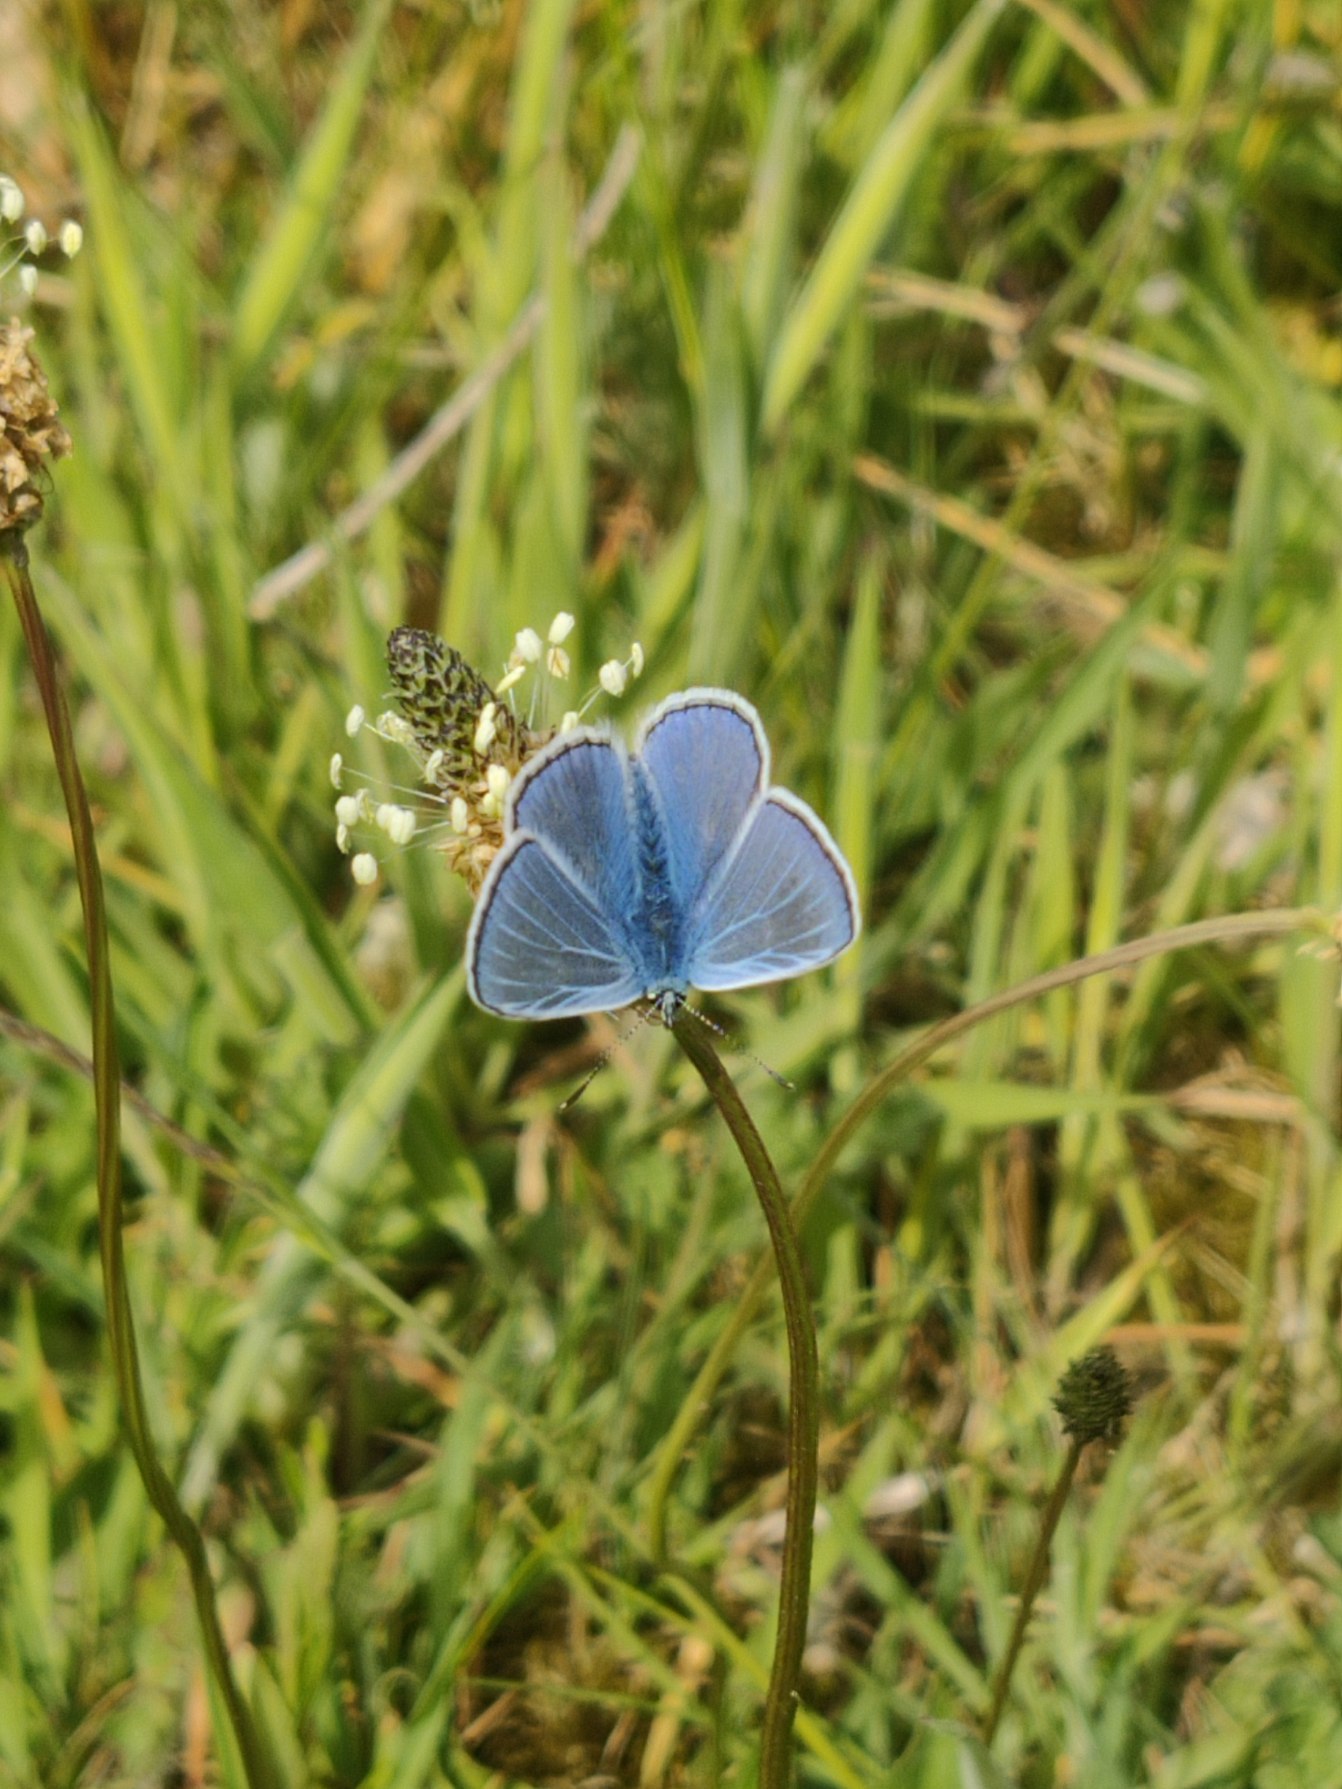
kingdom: Animalia
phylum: Arthropoda
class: Insecta
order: Lepidoptera
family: Lycaenidae
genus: Polyommatus
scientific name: Polyommatus icarus
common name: Almindelig blåfugl
